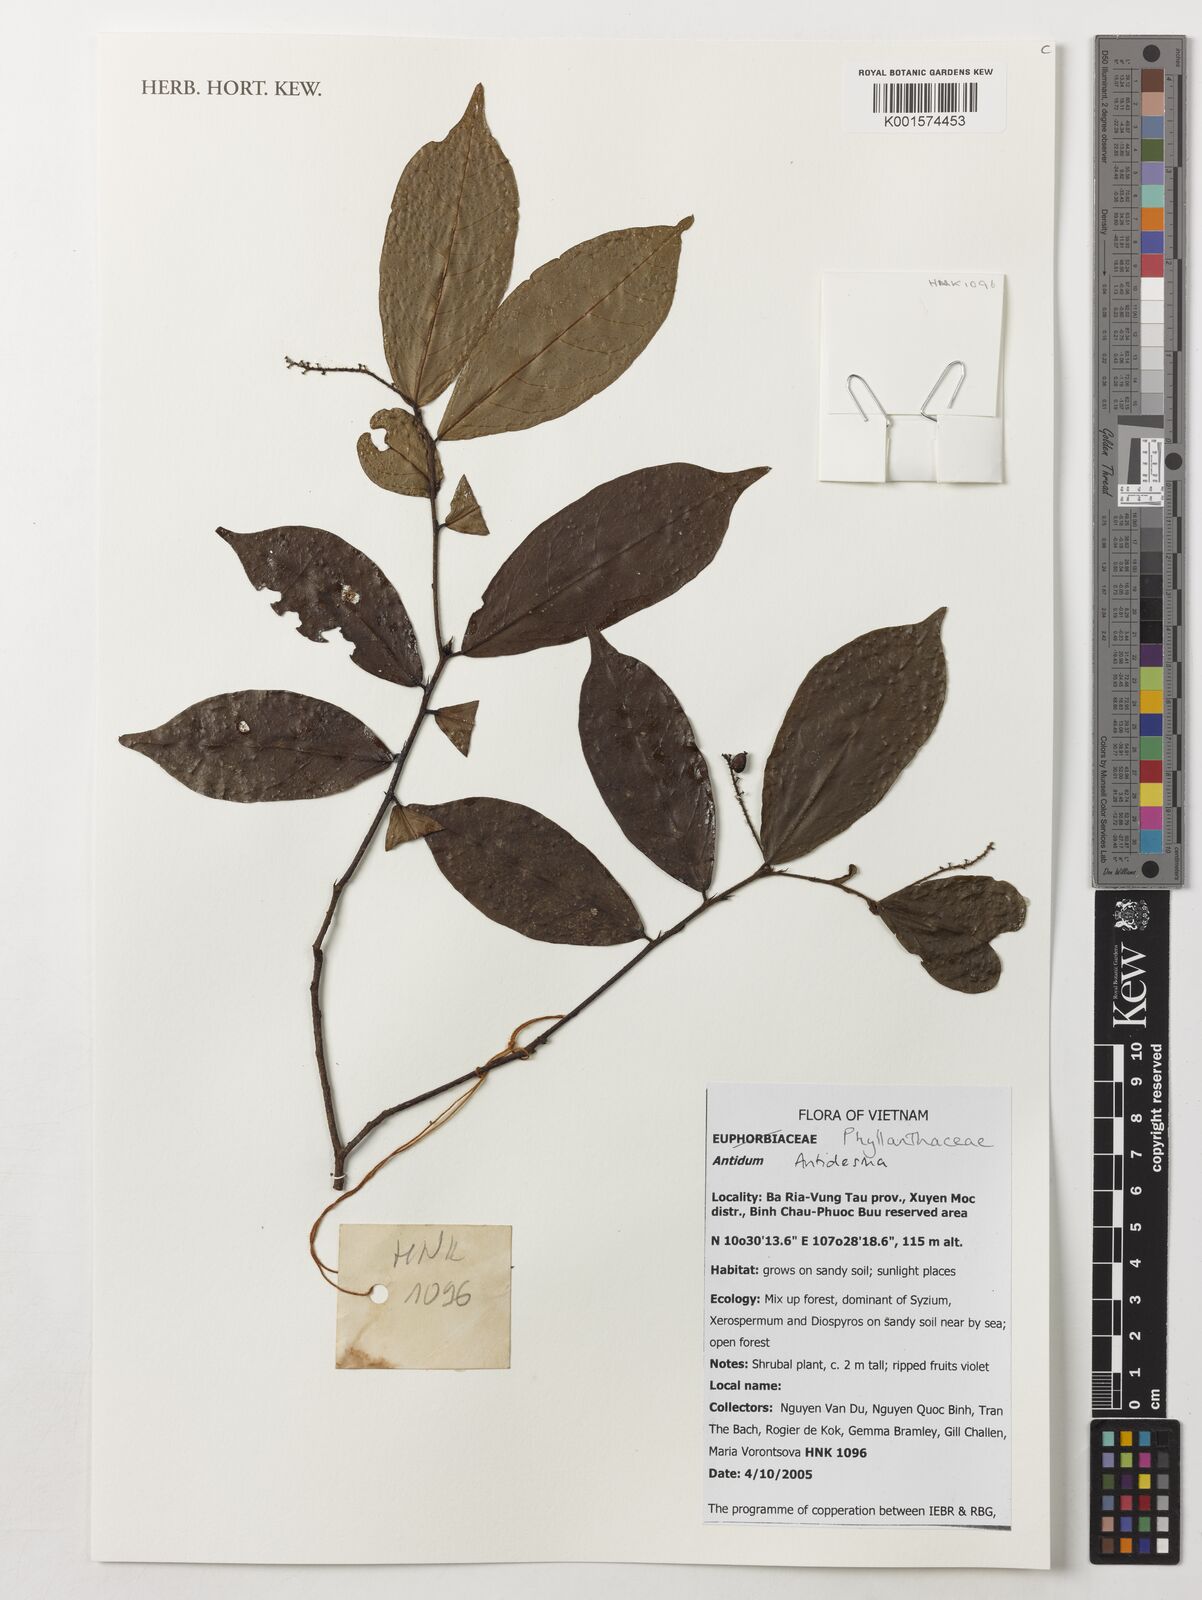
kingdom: Plantae
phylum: Tracheophyta
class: Magnoliopsida
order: Malpighiales
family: Phyllanthaceae
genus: Antidesma
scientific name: Antidesma
